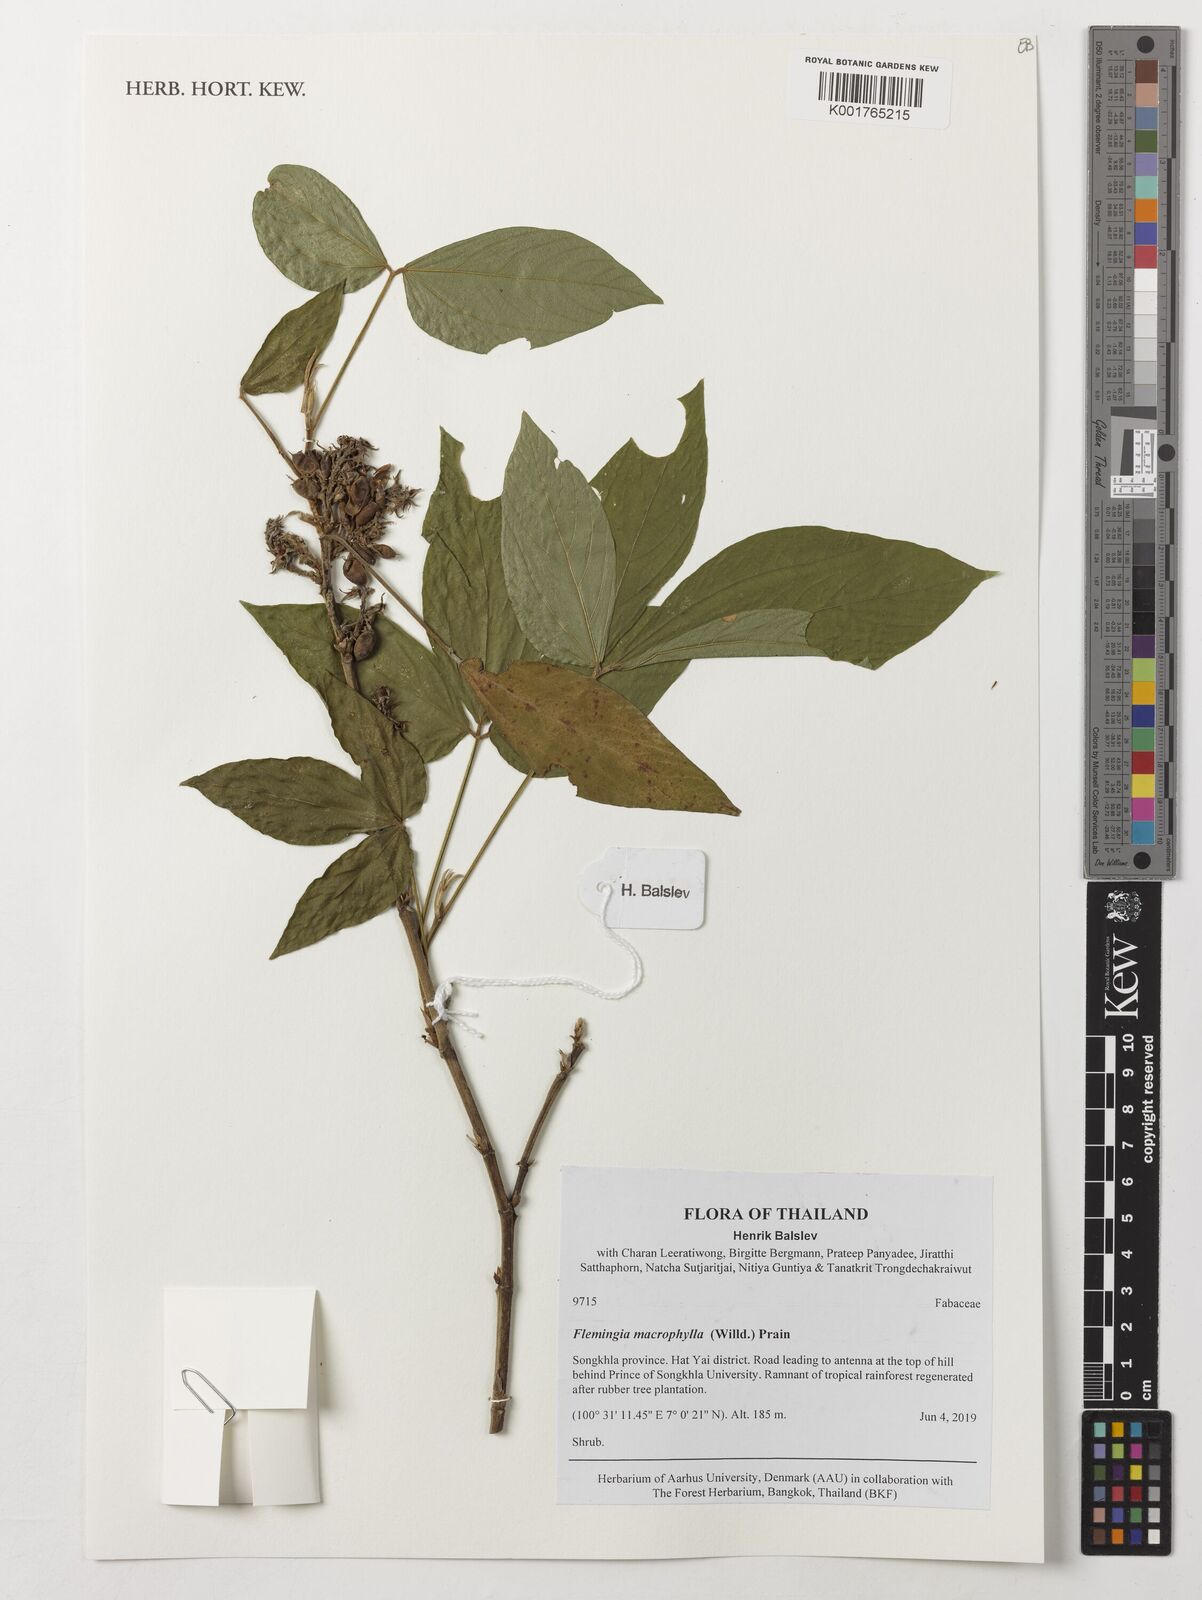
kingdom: Plantae
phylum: Tracheophyta
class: Magnoliopsida
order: Fabales
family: Fabaceae
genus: Flemingia
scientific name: Flemingia macrophylla
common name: Flemingia
